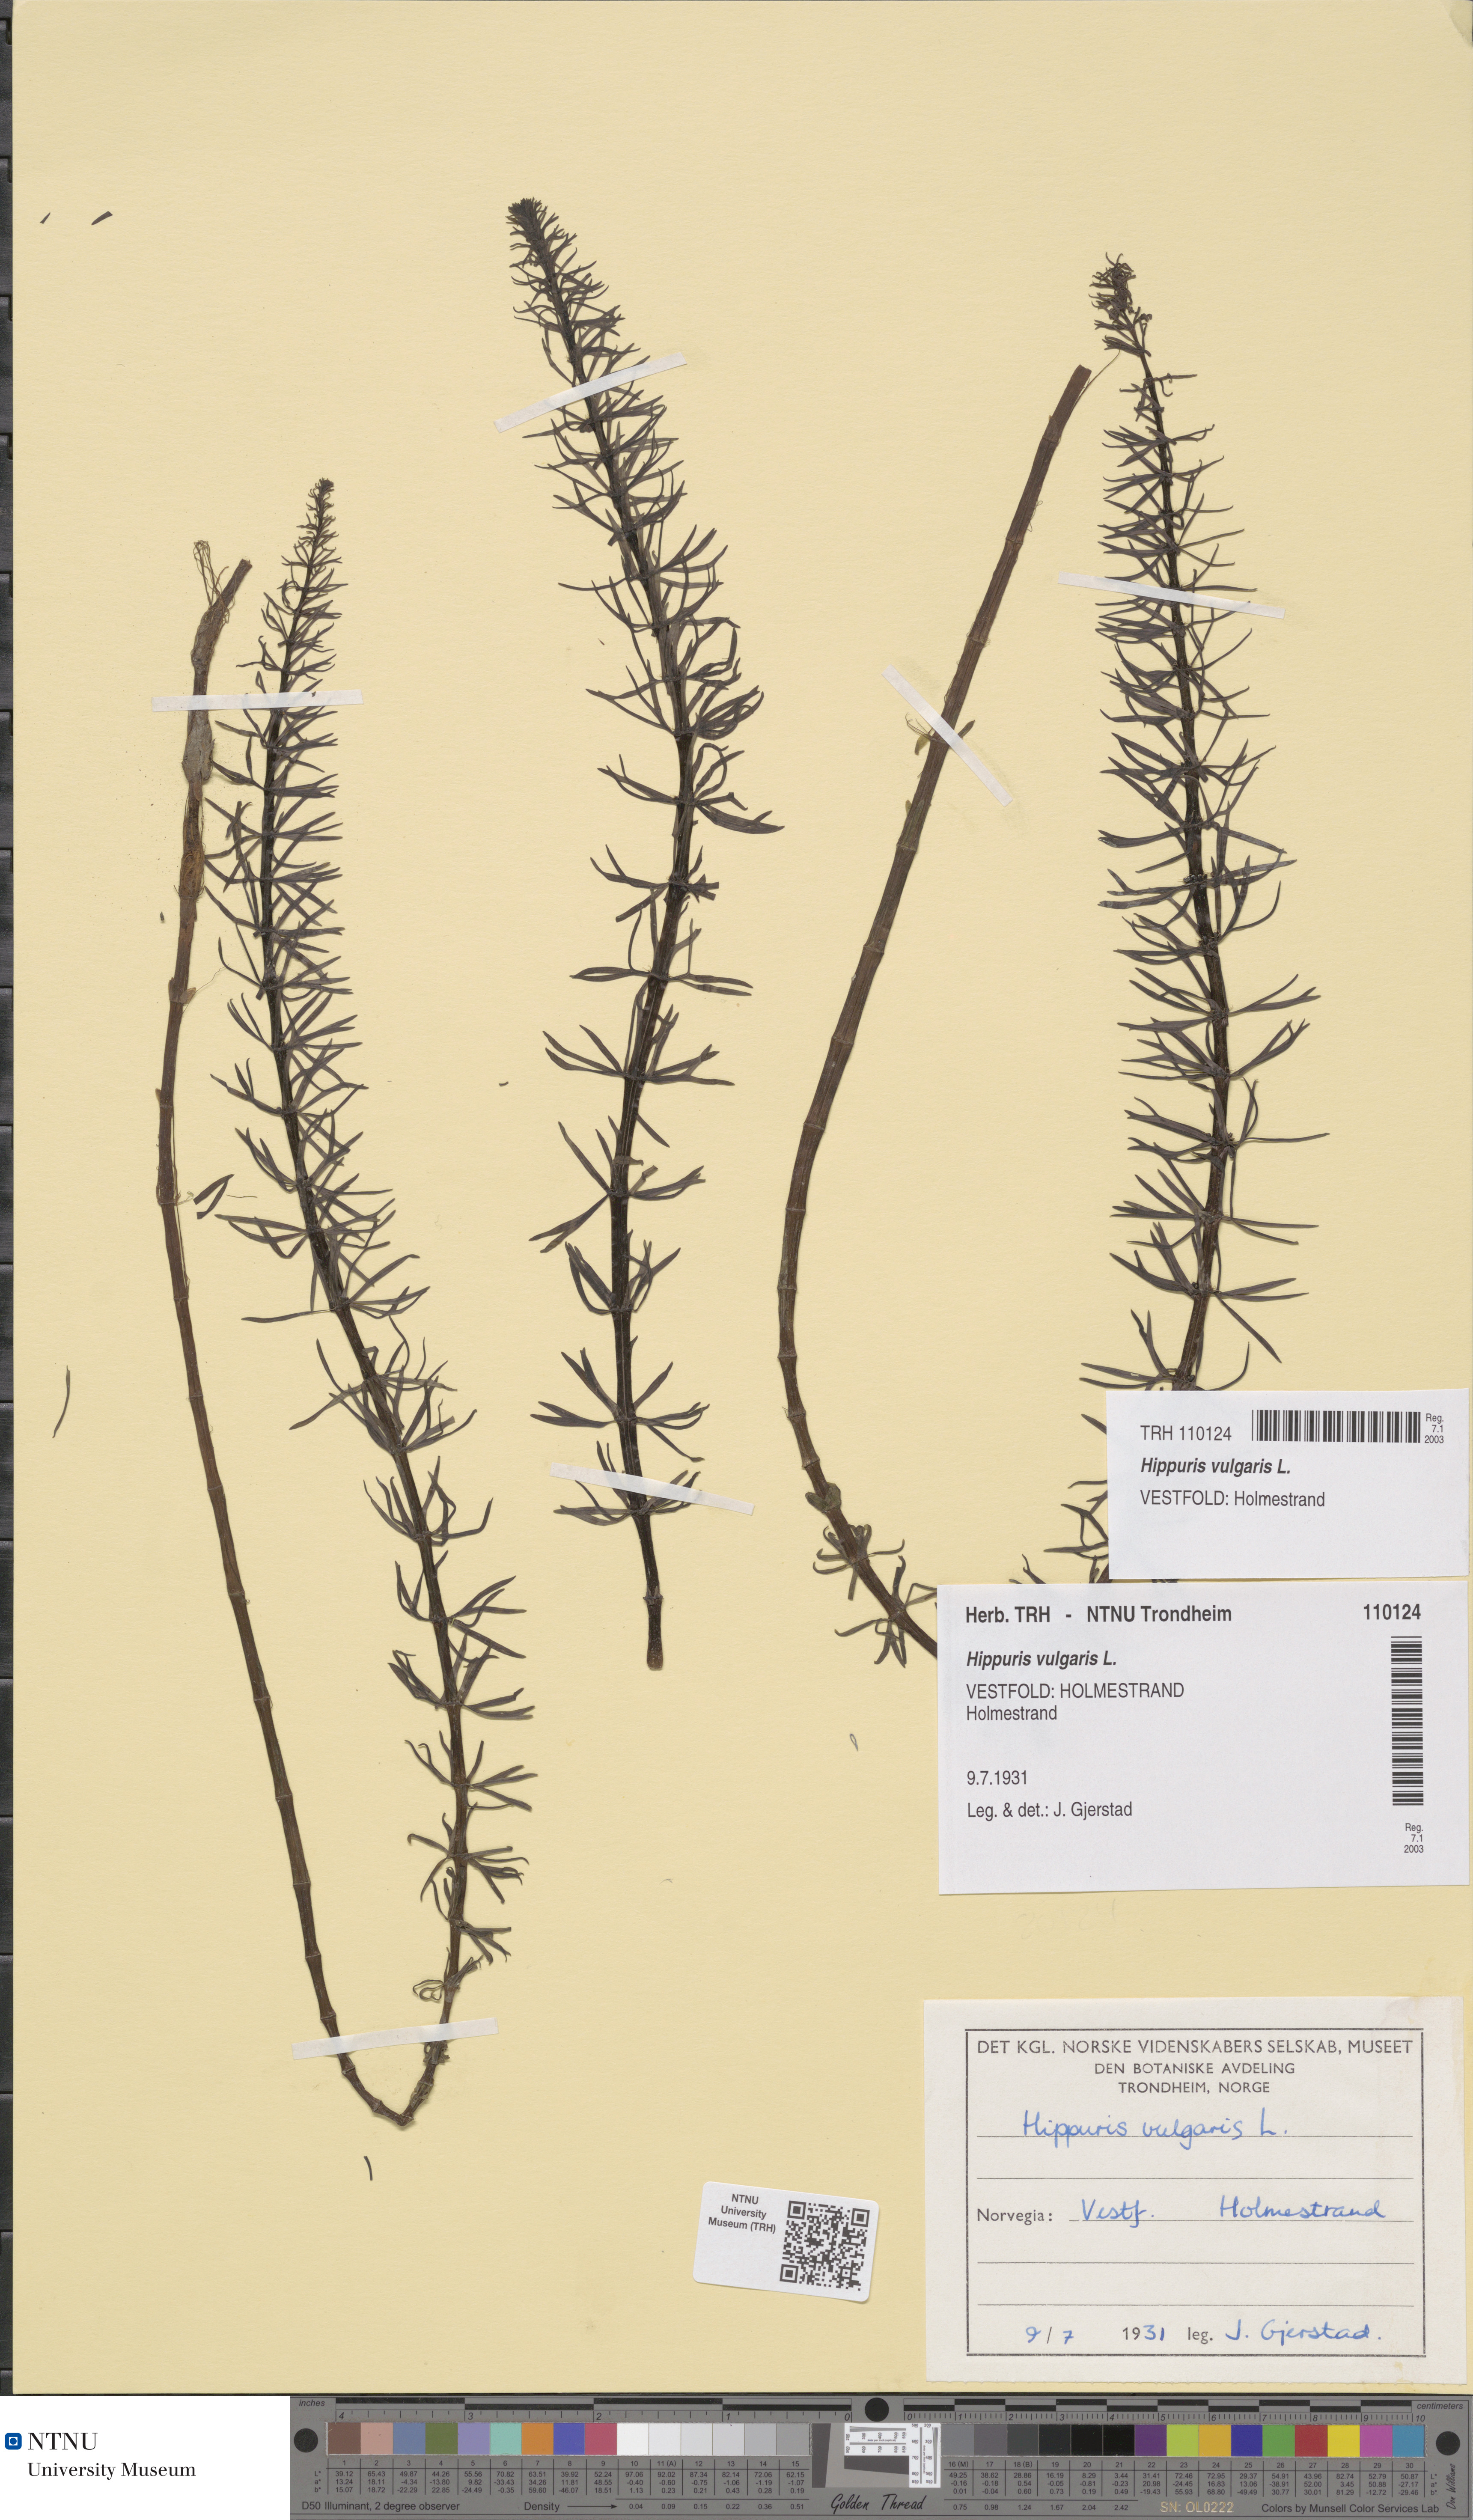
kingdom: Plantae
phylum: Tracheophyta
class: Magnoliopsida
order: Lamiales
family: Plantaginaceae
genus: Hippuris
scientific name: Hippuris vulgaris
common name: Mare's-tail
